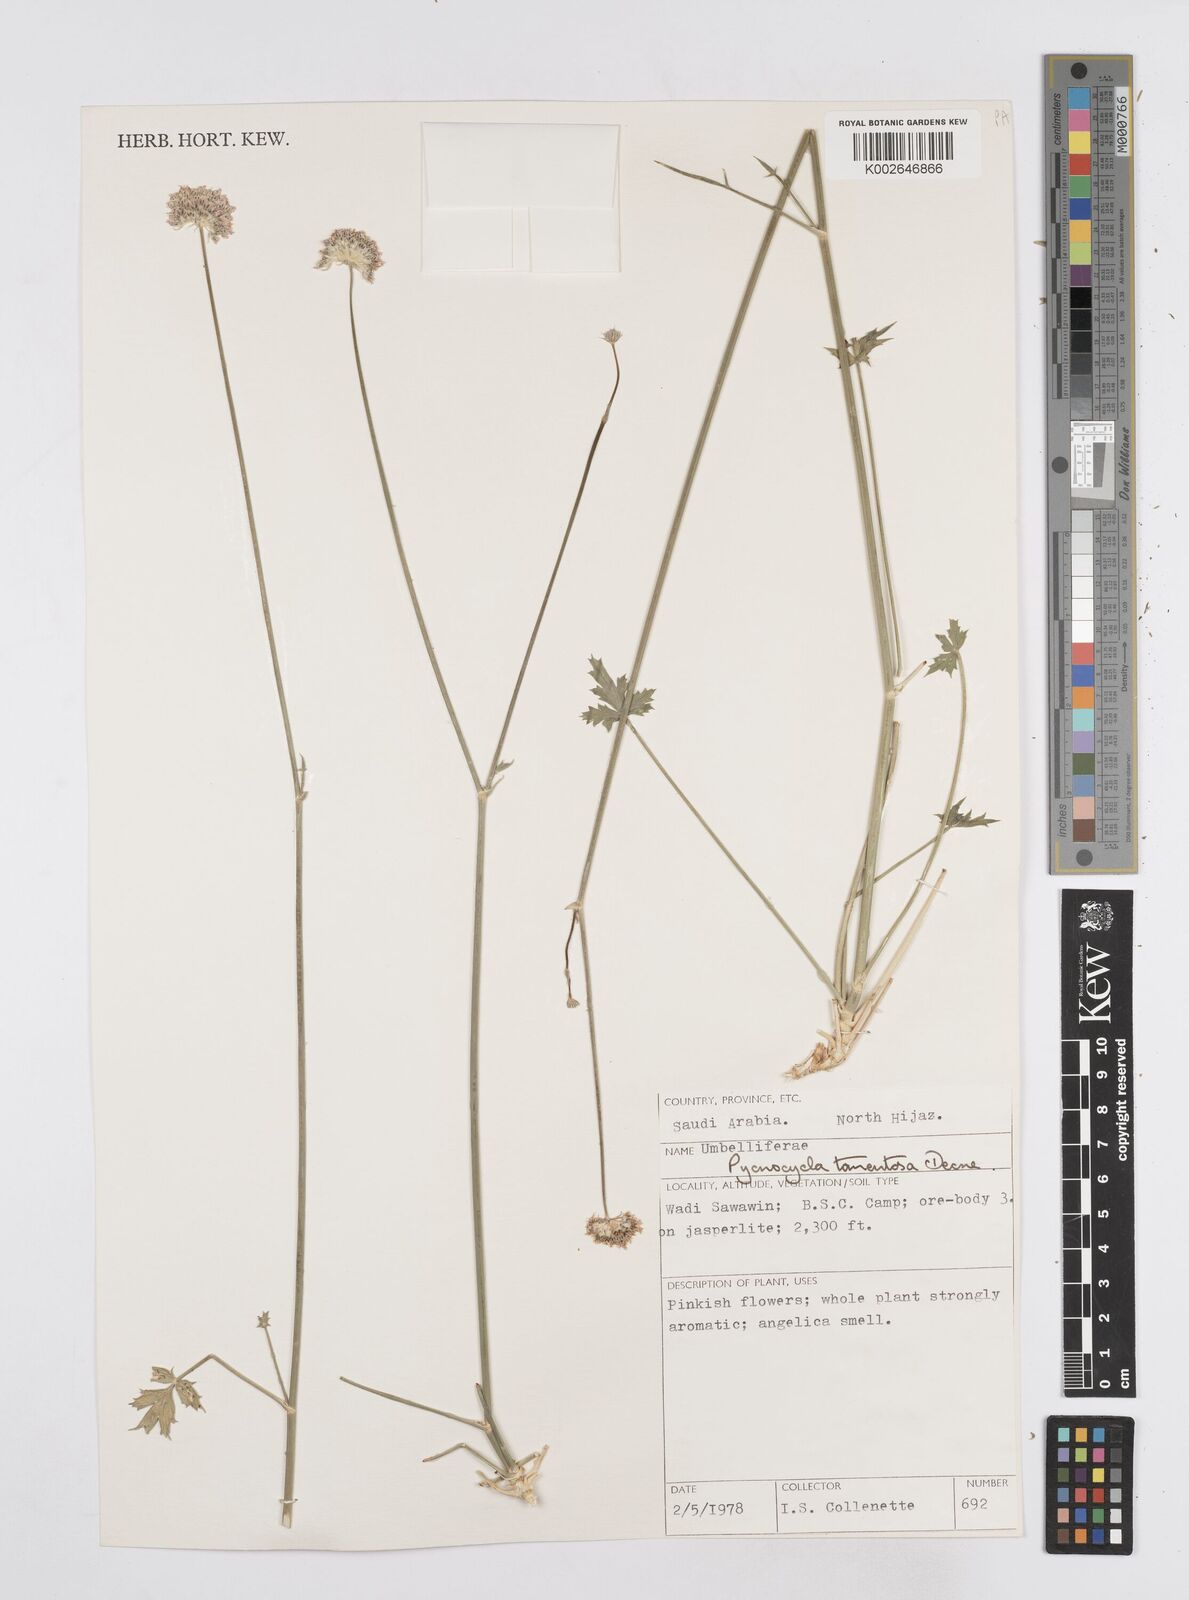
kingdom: Plantae
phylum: Tracheophyta
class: Magnoliopsida
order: Apiales
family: Apiaceae
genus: Pycnocycla
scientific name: Pycnocycla tomentosa
